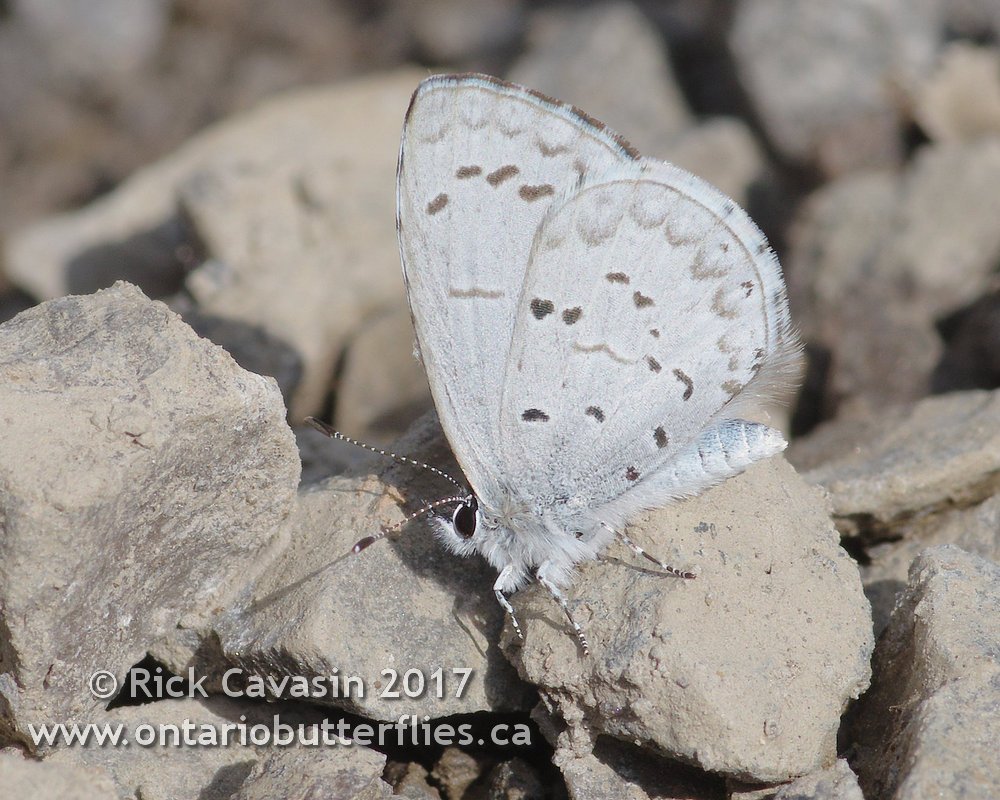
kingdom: Animalia
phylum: Arthropoda
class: Insecta
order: Lepidoptera
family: Lycaenidae
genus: Celastrina
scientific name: Celastrina ladon
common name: Spring Azure
